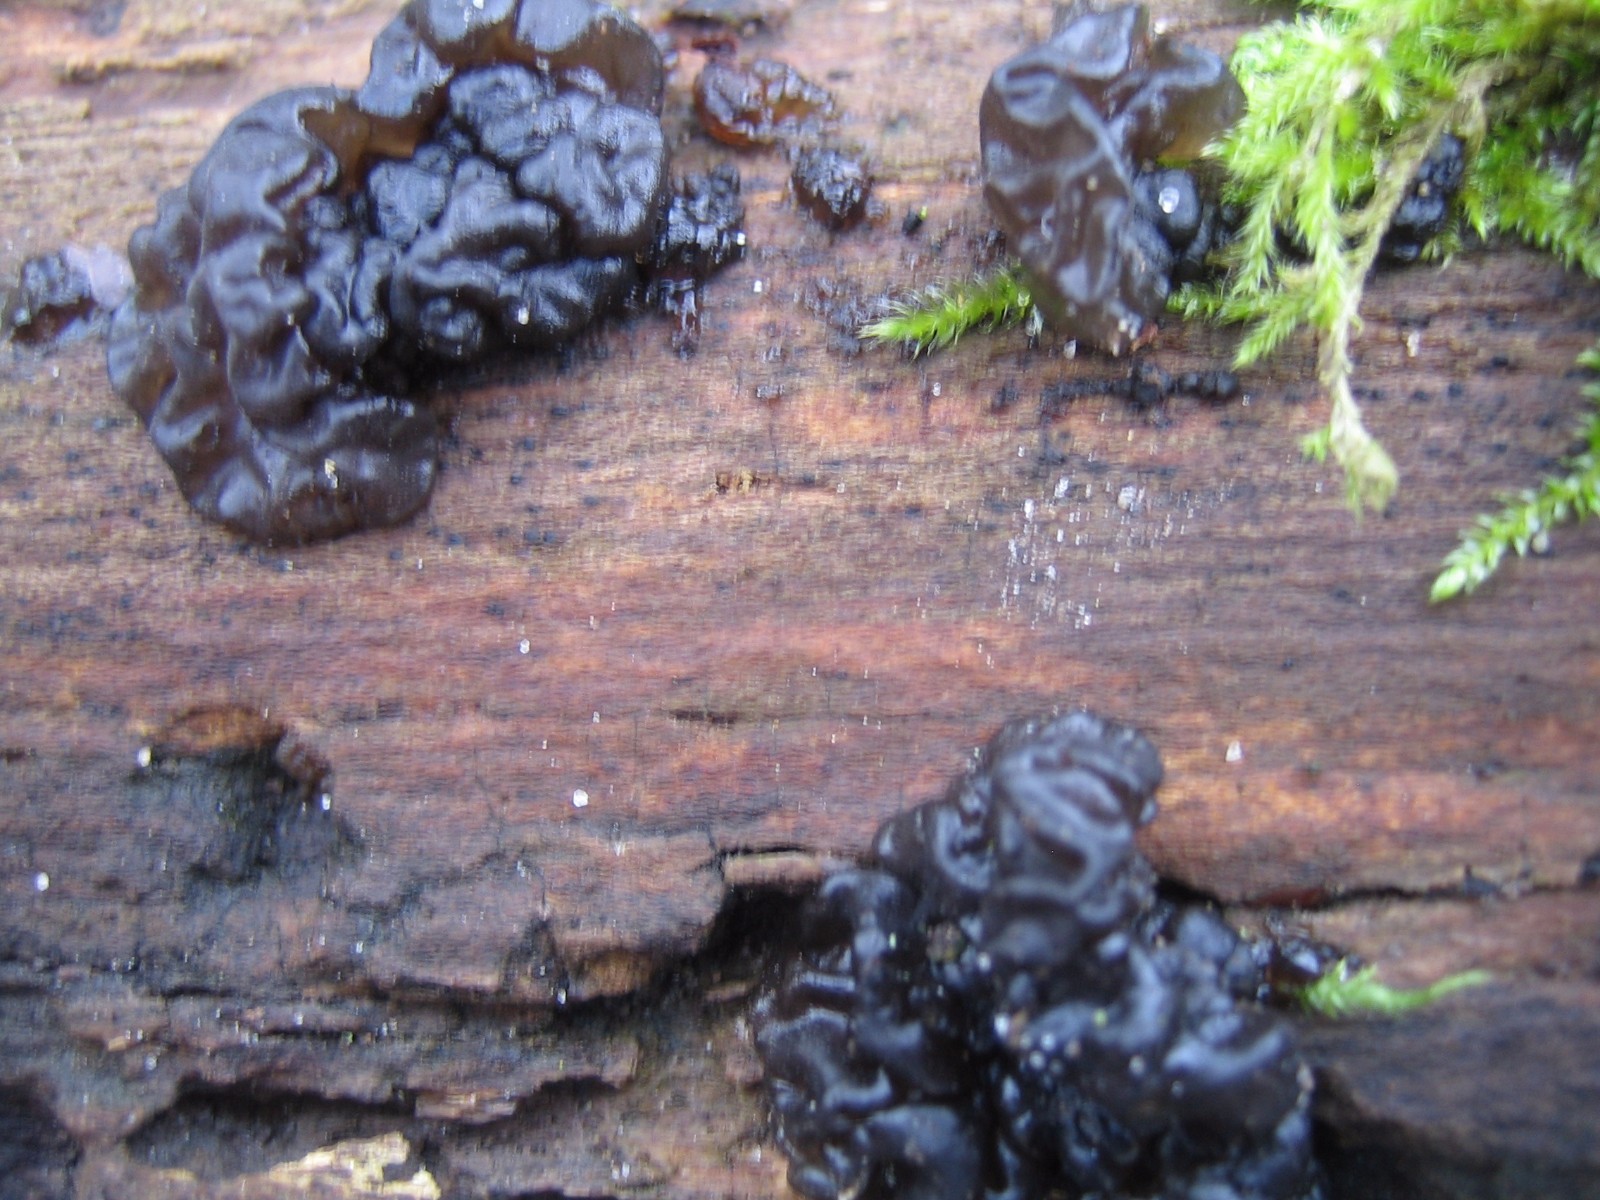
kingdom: Fungi
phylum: Basidiomycota
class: Agaricomycetes
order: Auriculariales
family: Auriculariaceae
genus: Exidia
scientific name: Exidia nigricans
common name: almindelig bævretop
